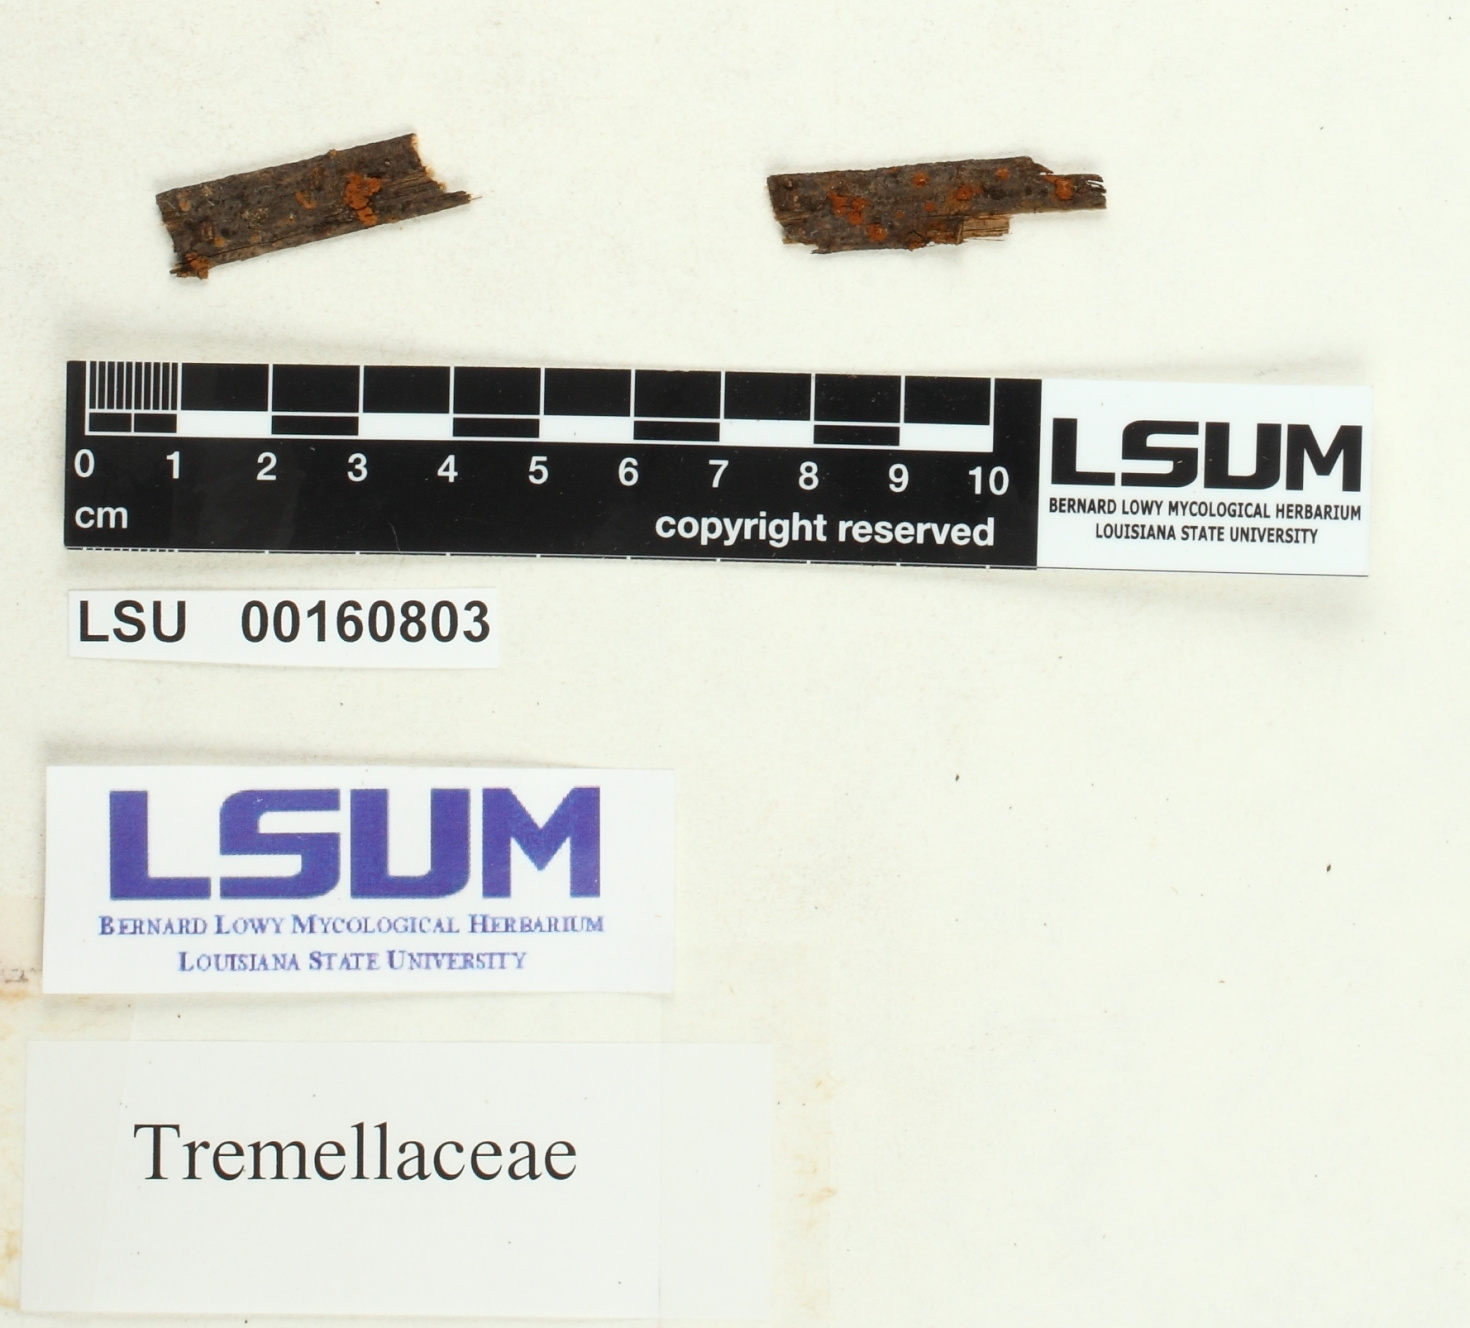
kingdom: Fungi
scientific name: Fungi
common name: Fungi
